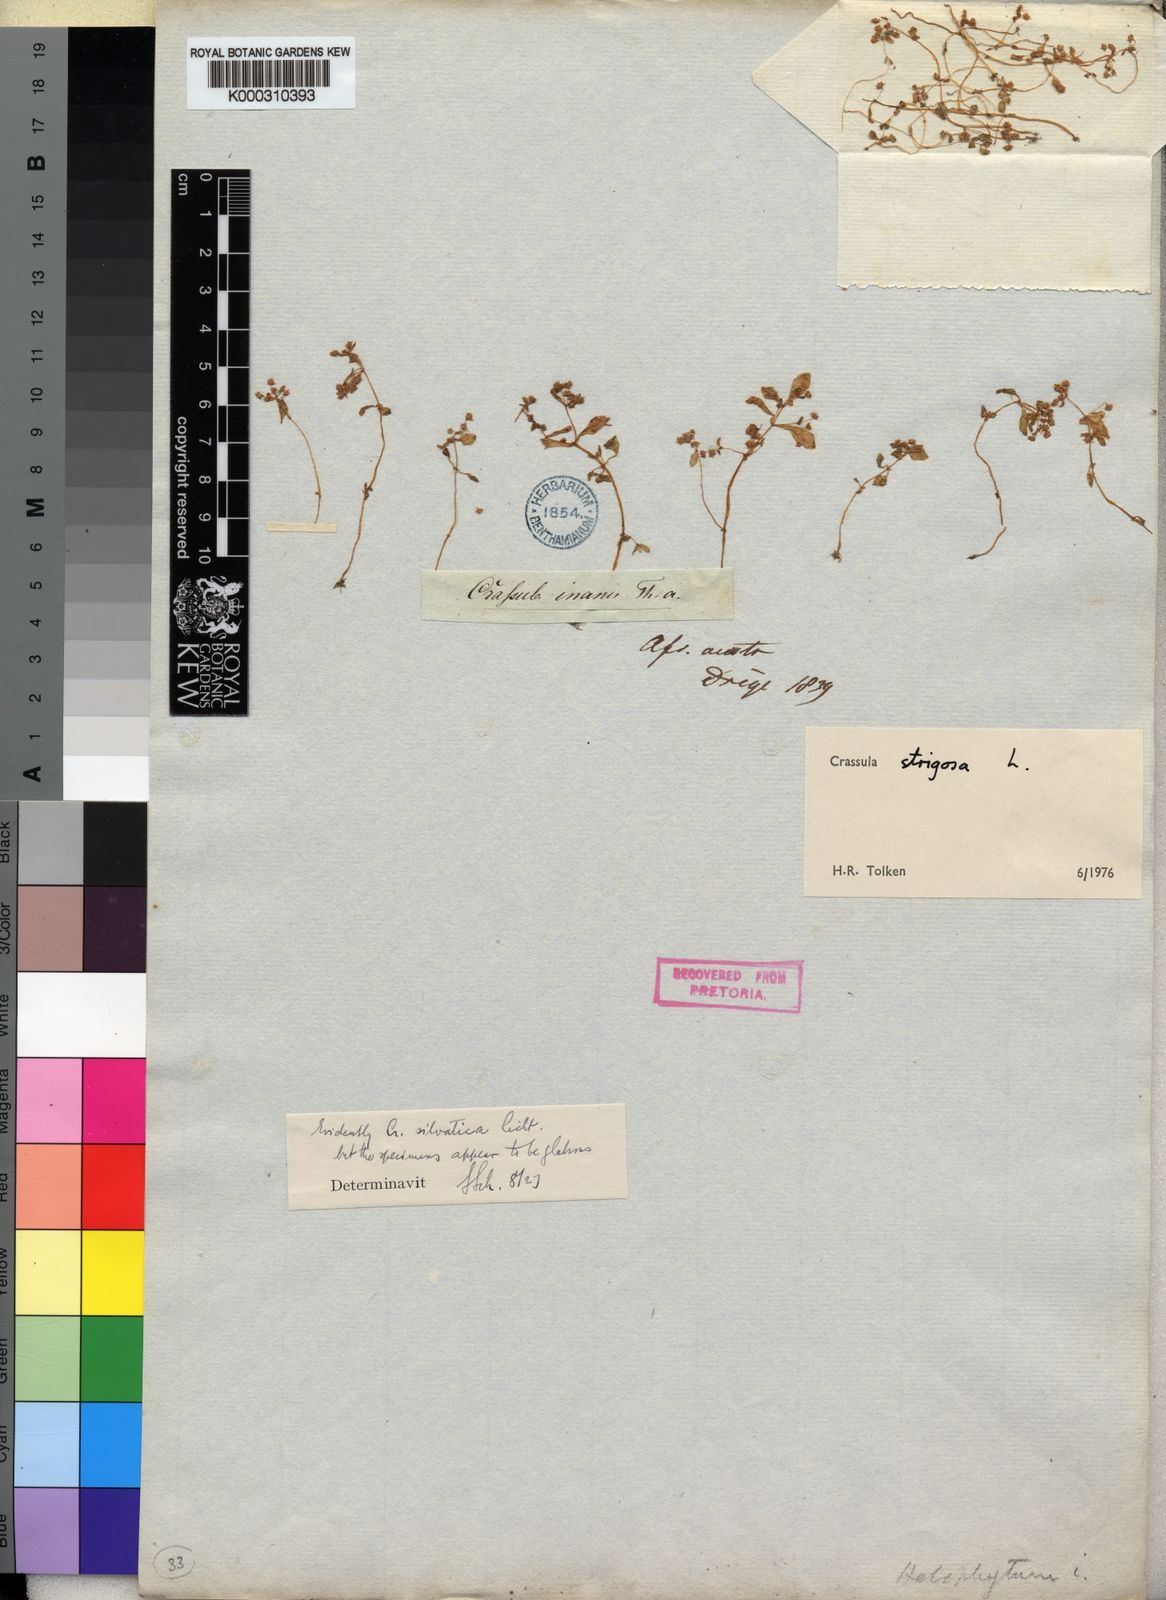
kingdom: Plantae
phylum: Tracheophyta
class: Magnoliopsida
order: Saxifragales
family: Crassulaceae
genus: Crassula
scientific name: Crassula strigosa
